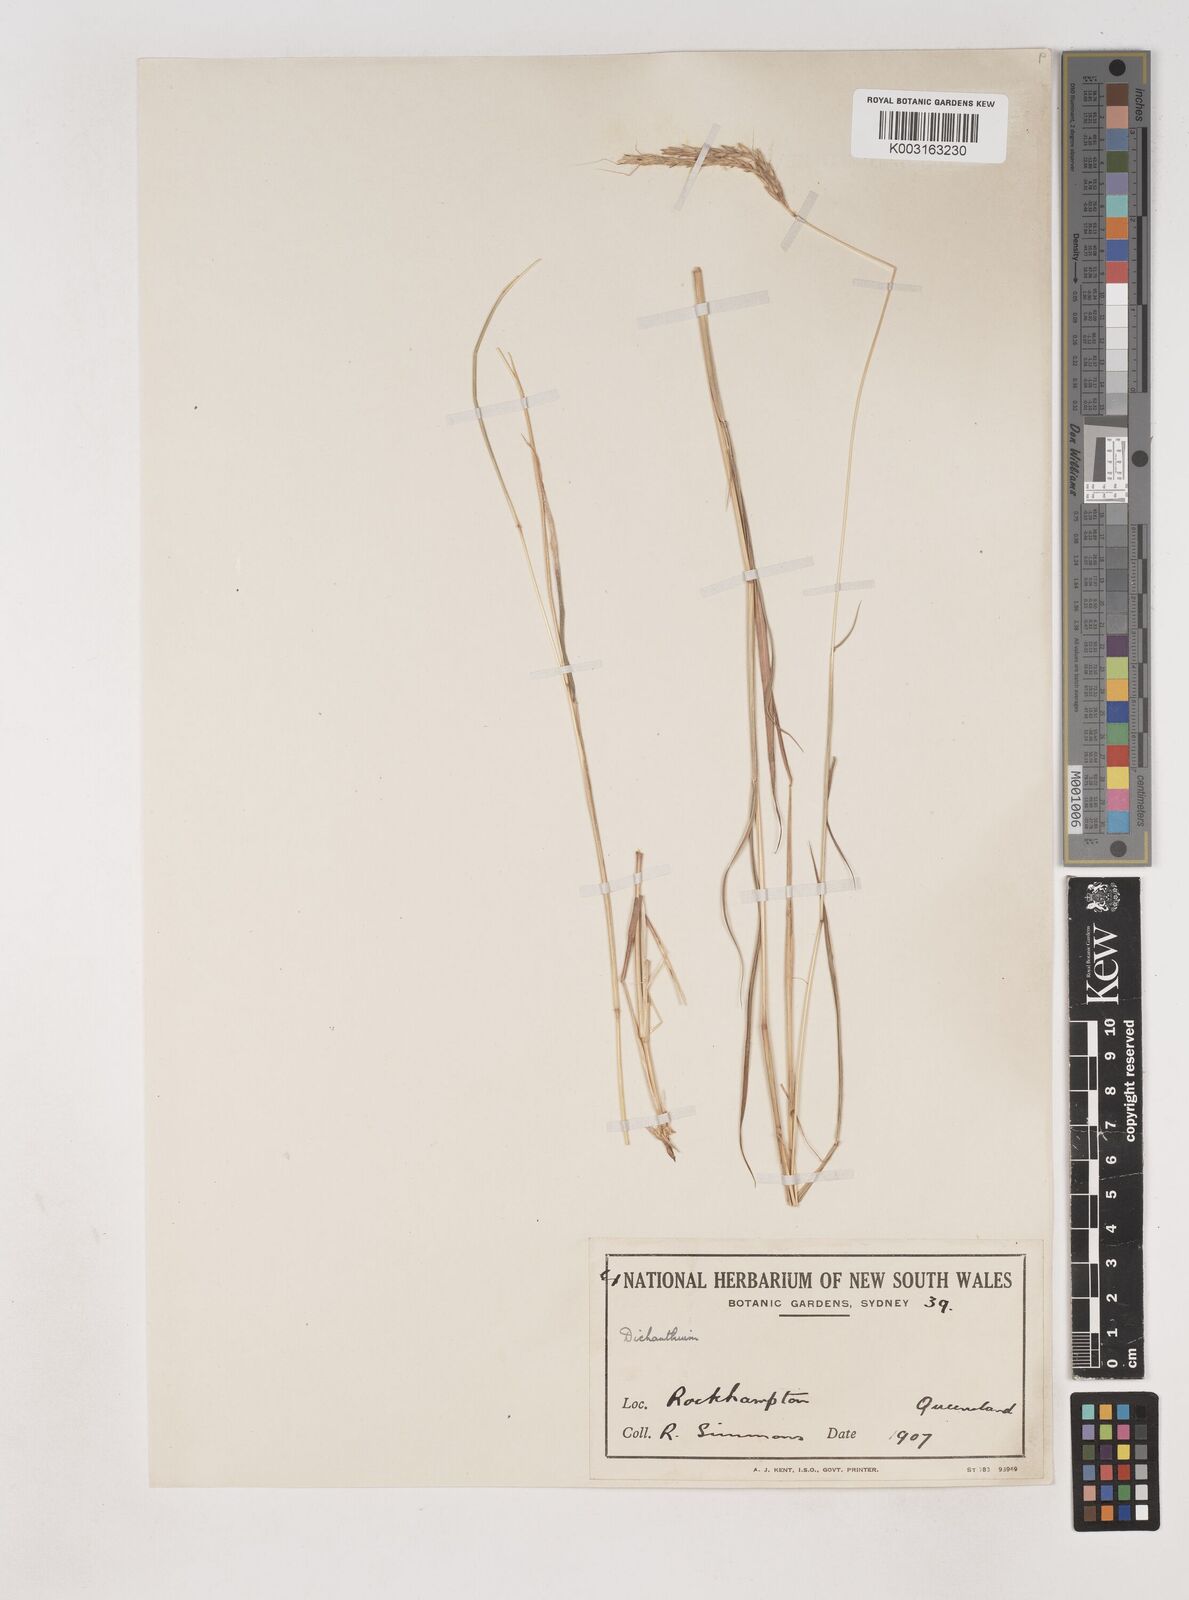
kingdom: Plantae
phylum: Tracheophyta
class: Liliopsida
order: Poales
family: Poaceae
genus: Dichanthium
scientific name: Dichanthium fecundum
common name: Bundle-bundle
